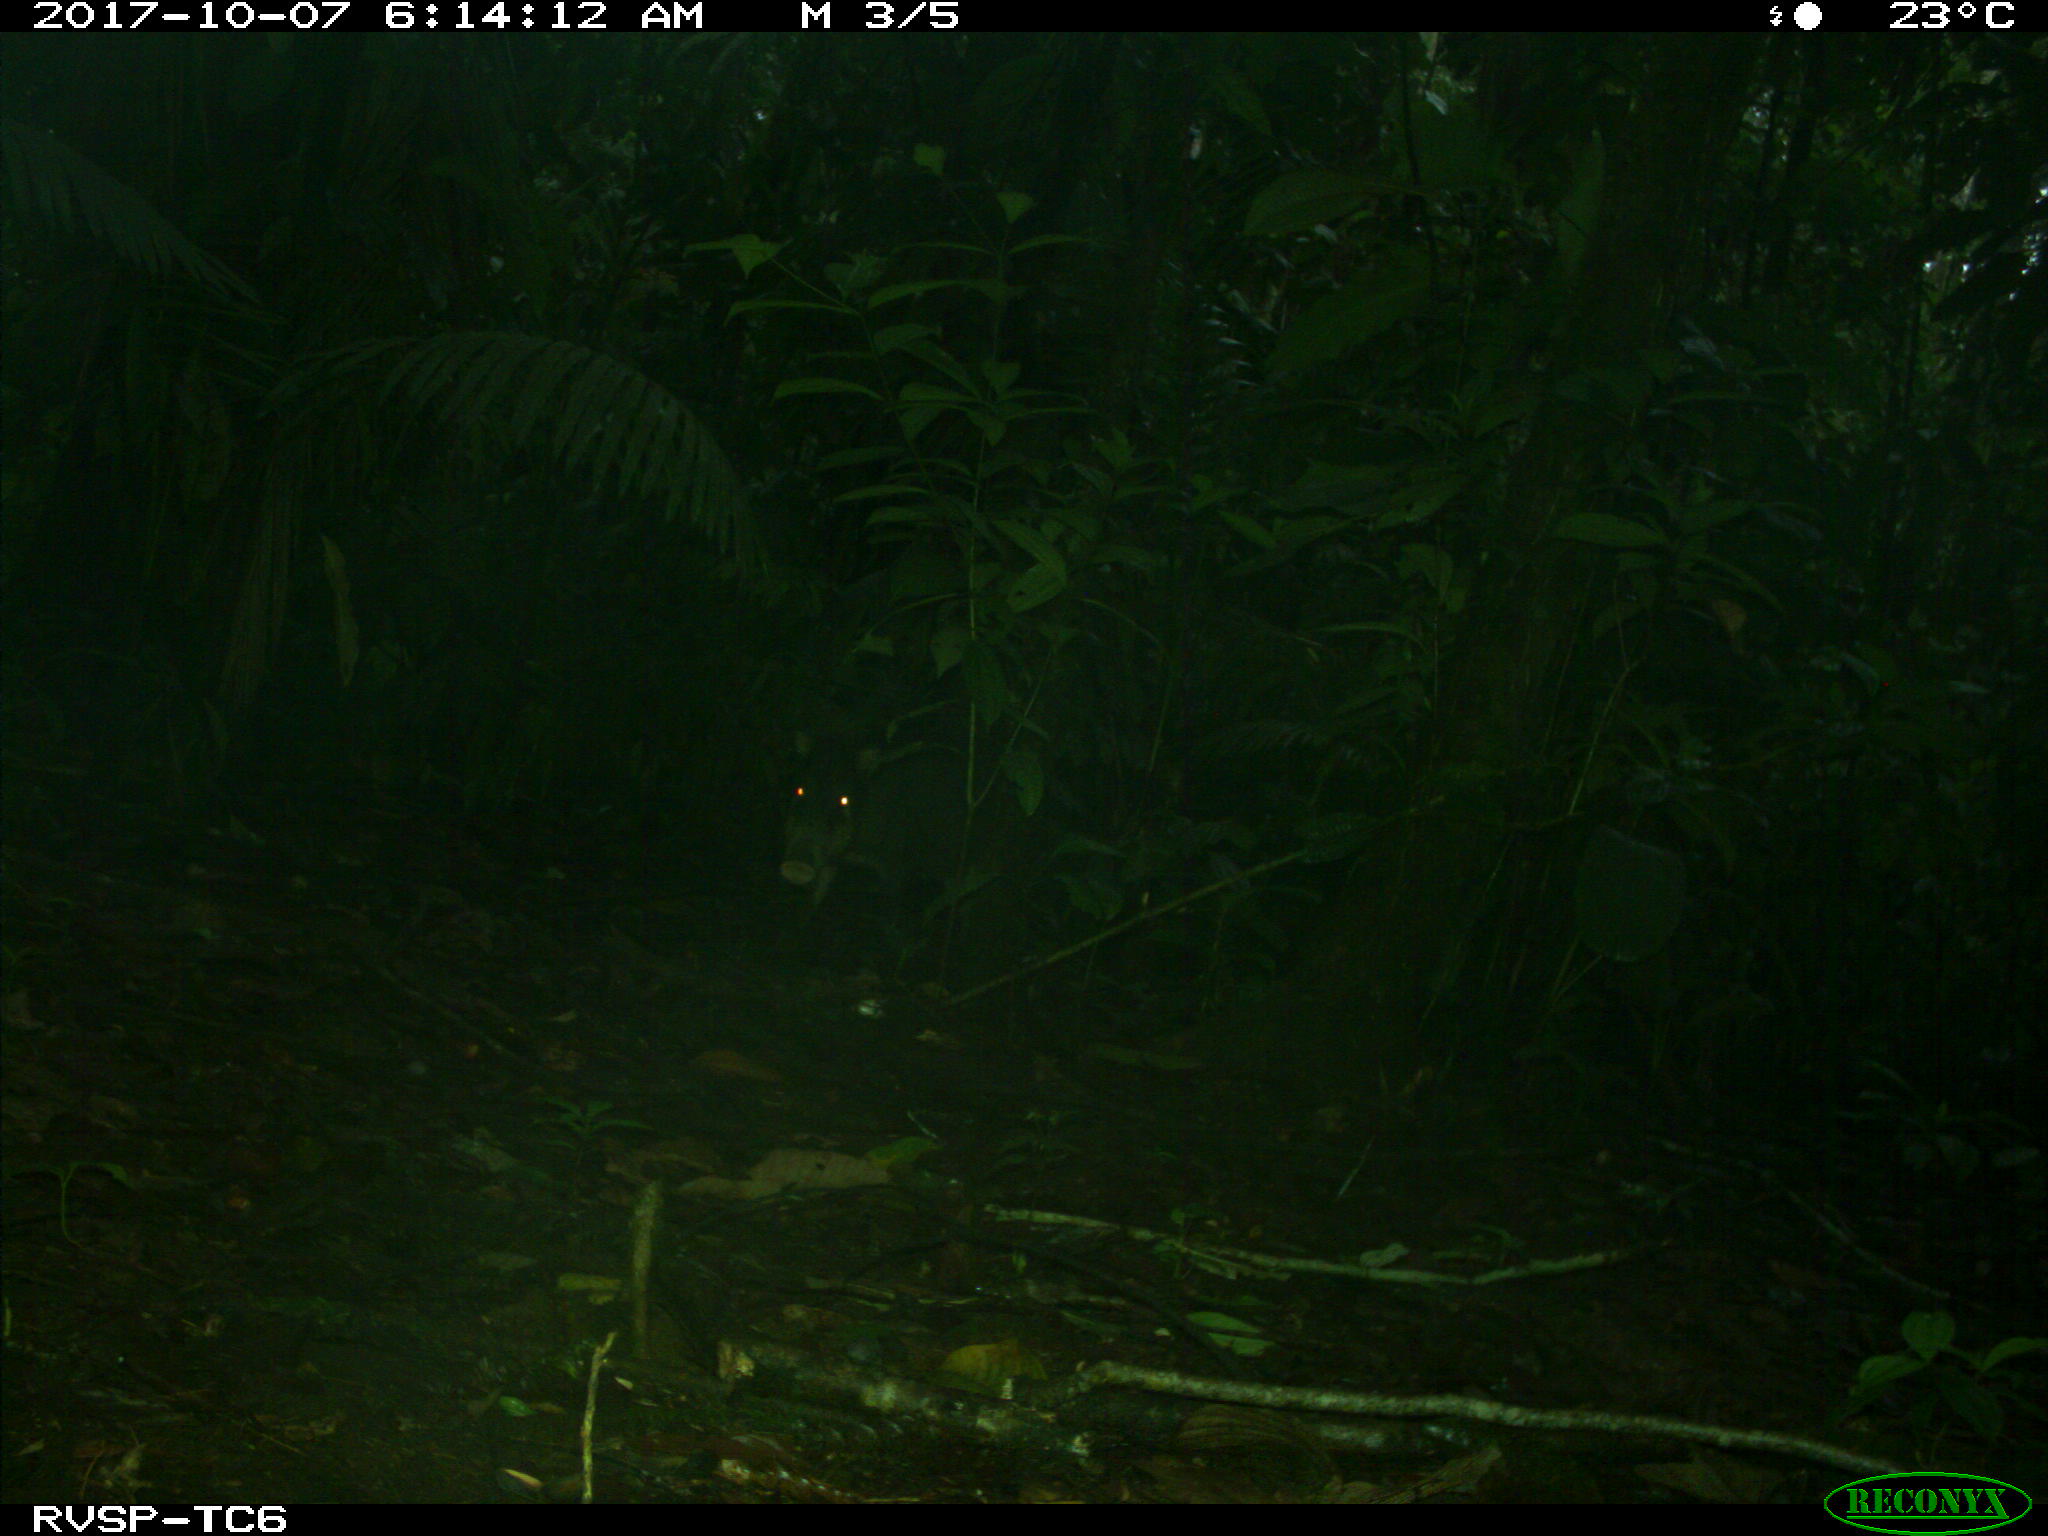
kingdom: Animalia
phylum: Chordata
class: Mammalia
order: Artiodactyla
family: Tayassuidae
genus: Tayassu
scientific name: Tayassu pecari
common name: White-lipped peccary
